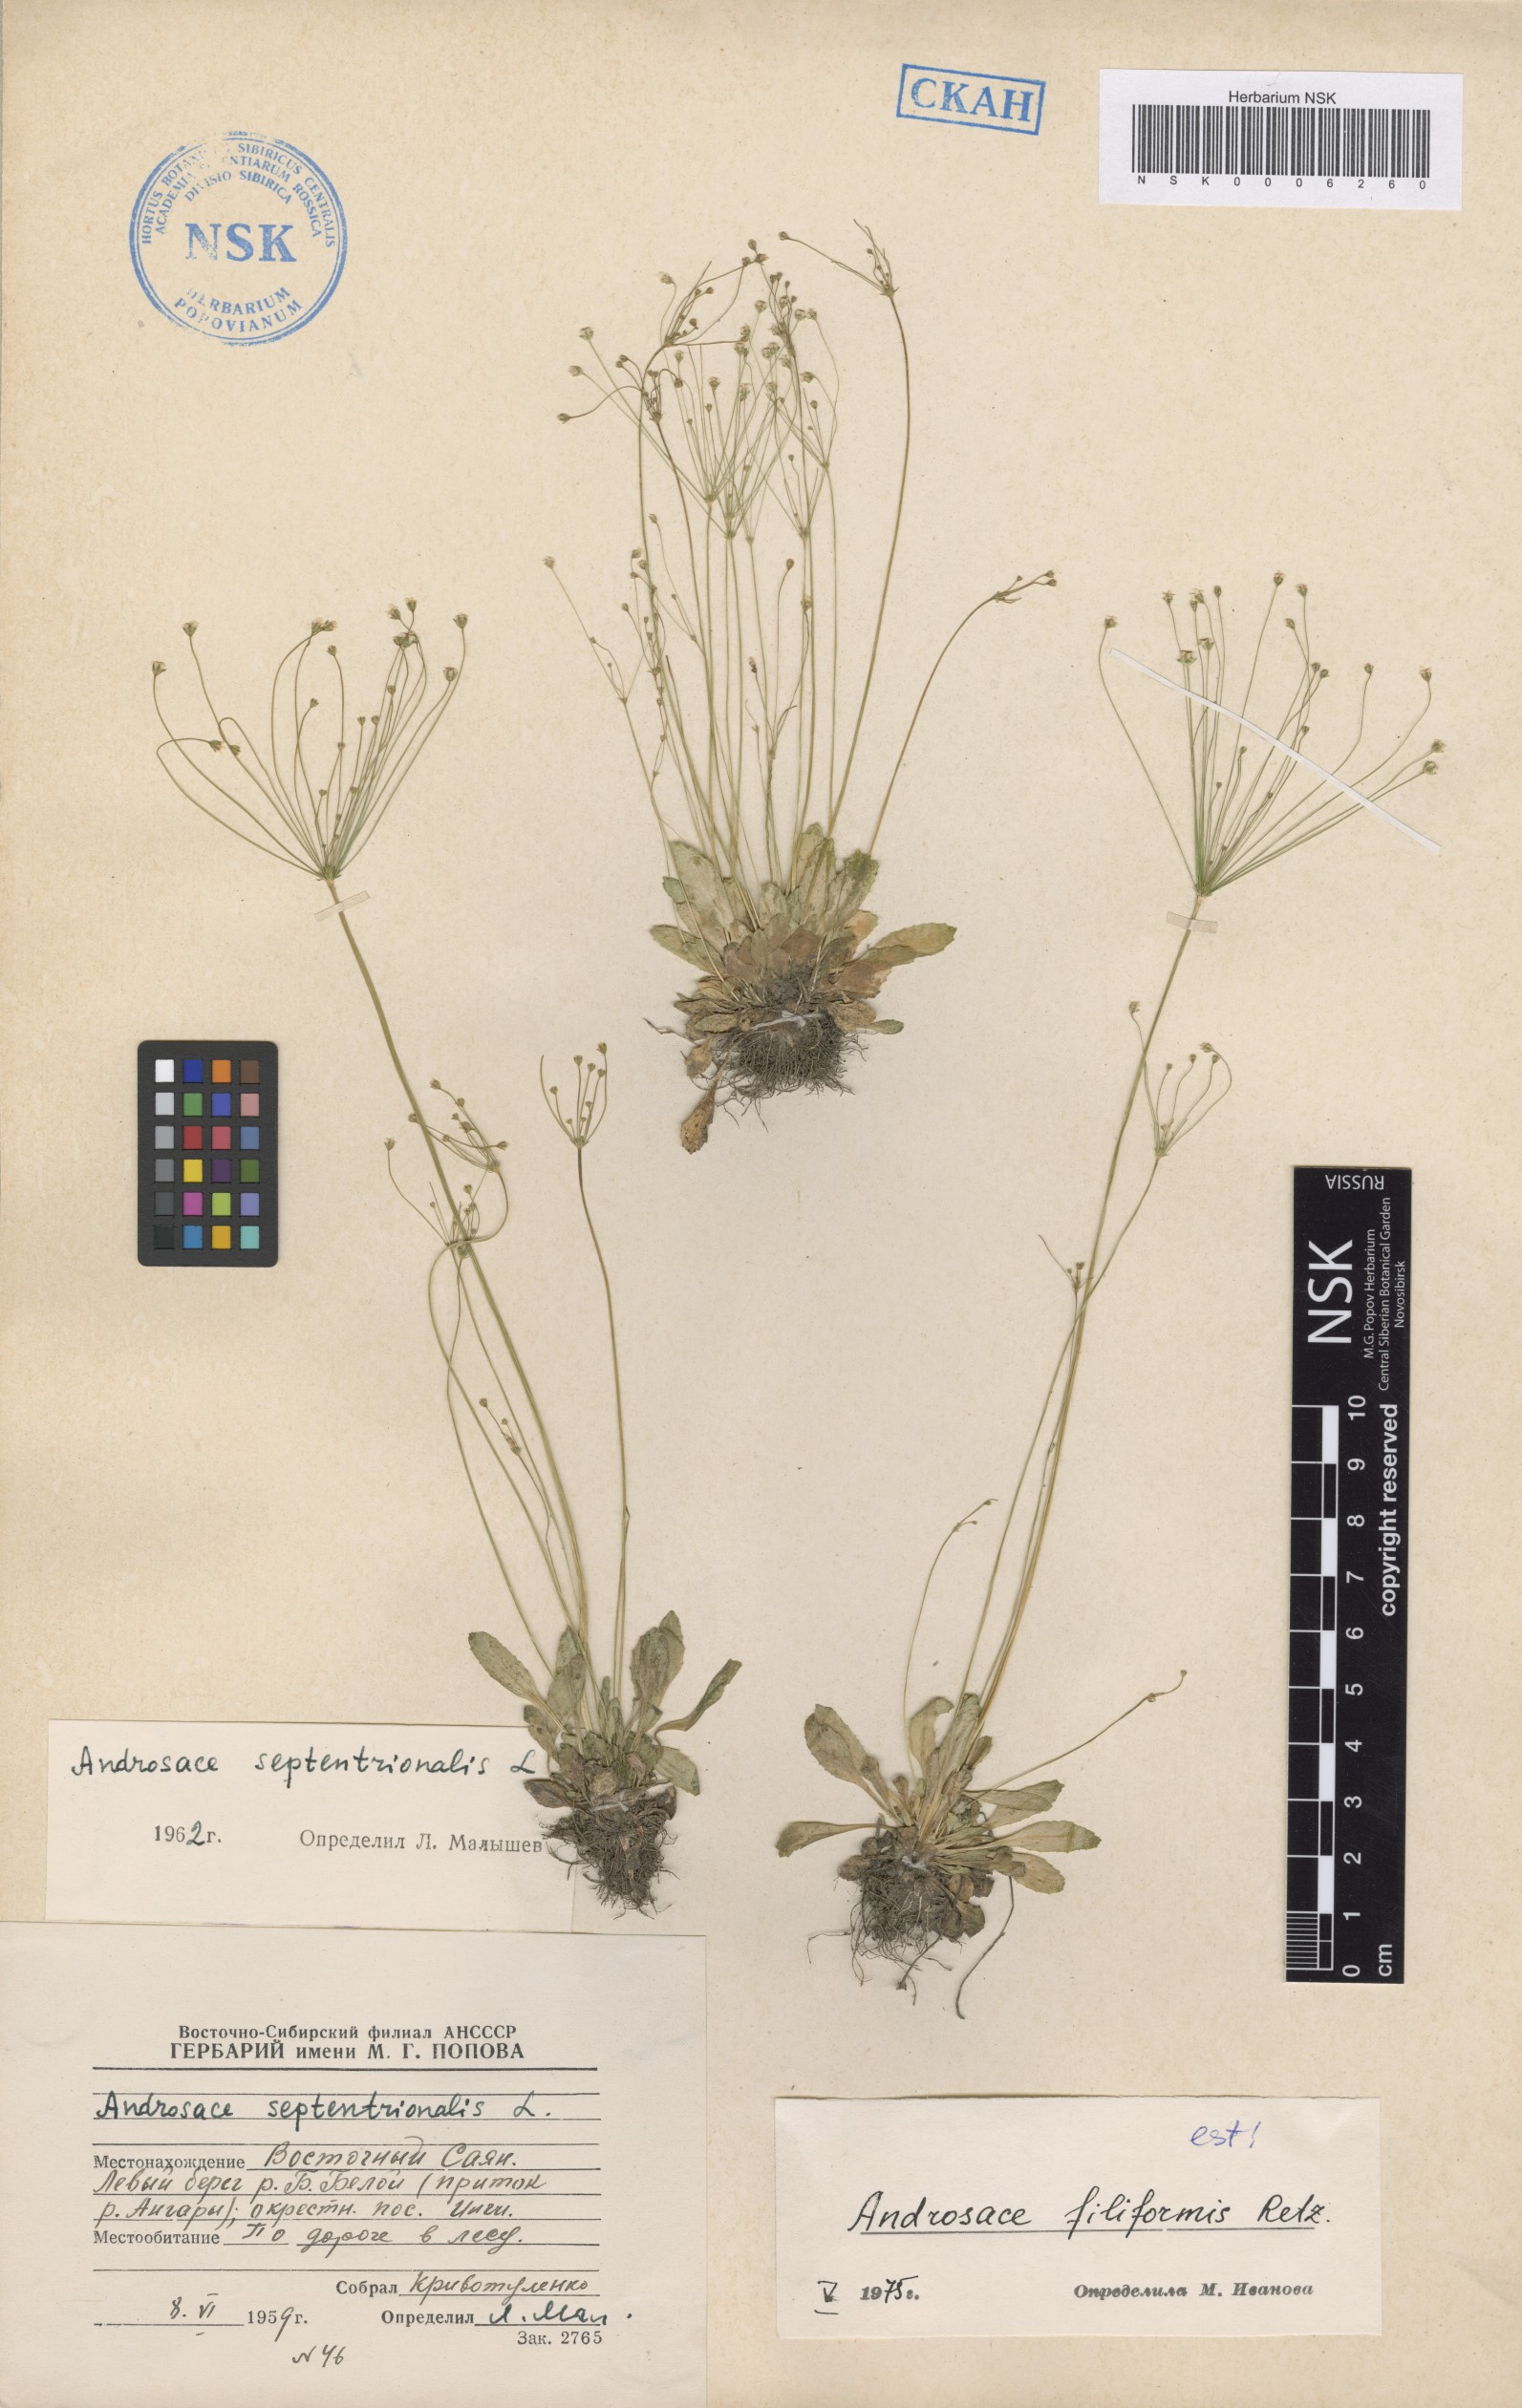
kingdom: Plantae
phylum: Tracheophyta
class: Magnoliopsida
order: Ericales
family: Primulaceae
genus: Androsace
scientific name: Androsace filiformis
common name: Filiform rock jasmine
